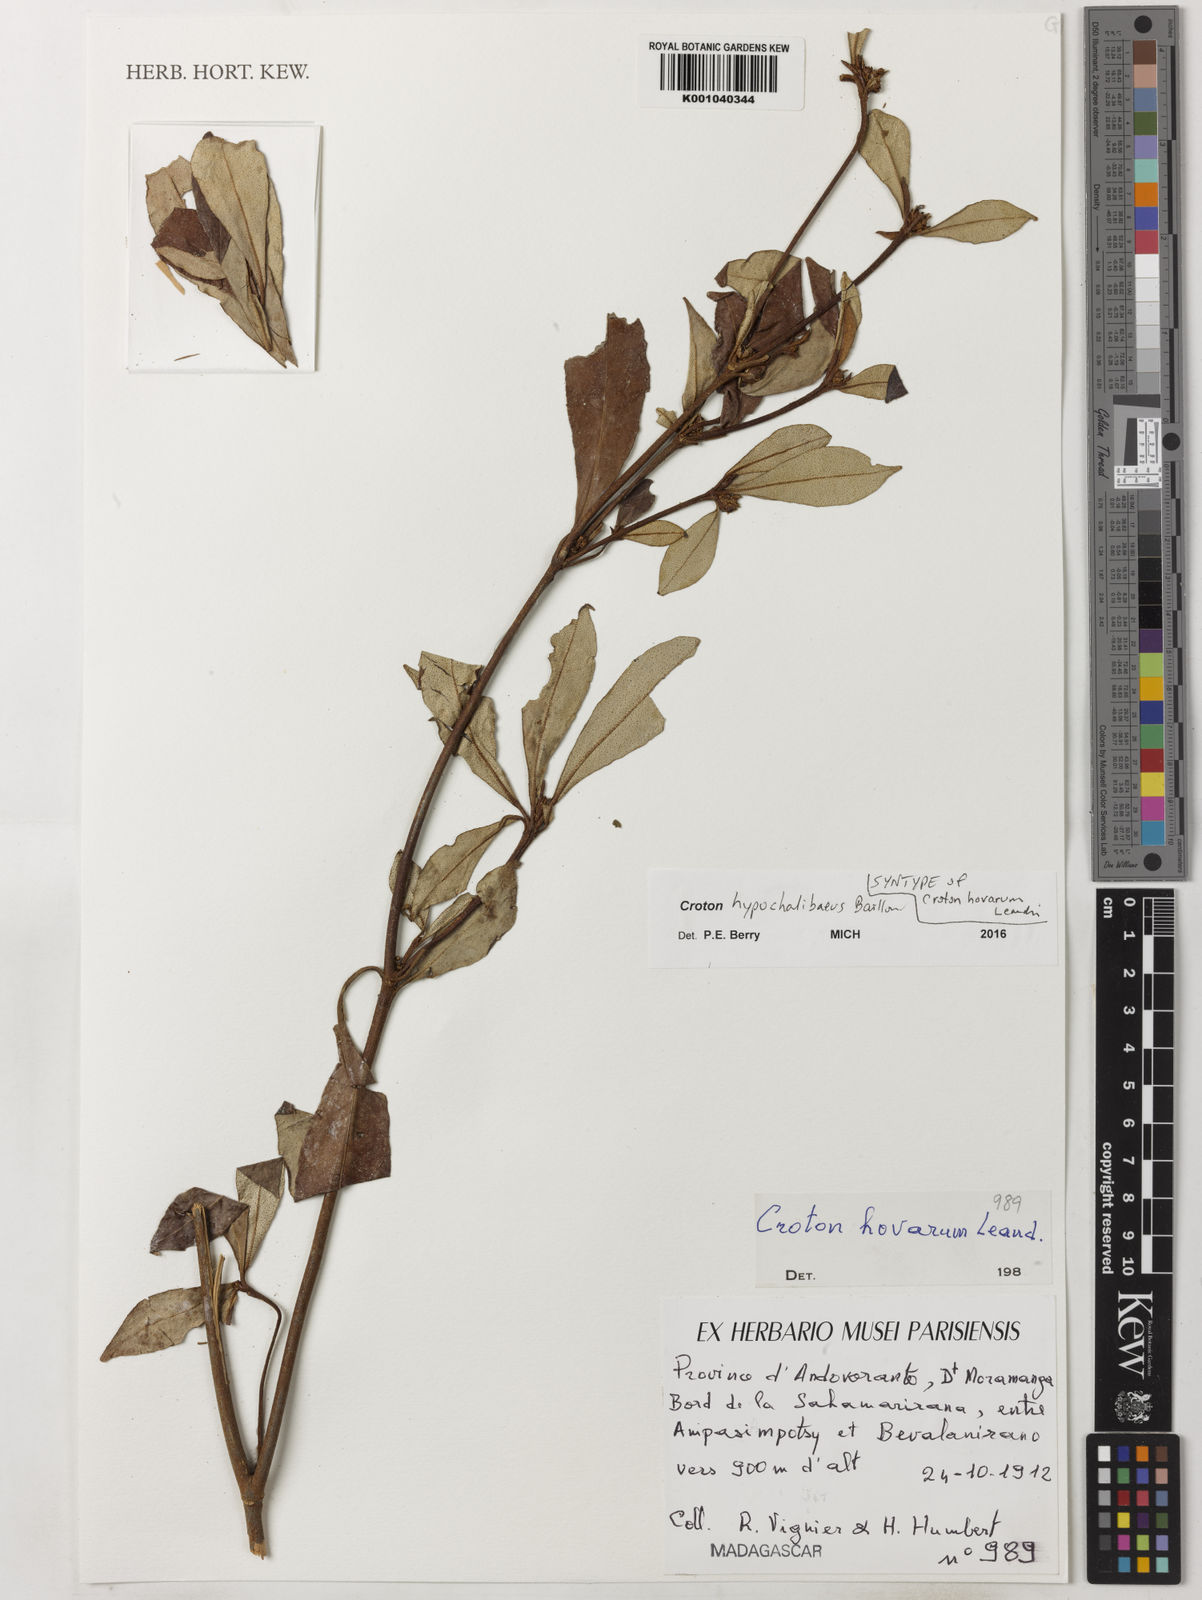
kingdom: Plantae
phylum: Tracheophyta
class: Magnoliopsida
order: Malpighiales
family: Euphorbiaceae
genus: Croton
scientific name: Croton hypochalibaeus
